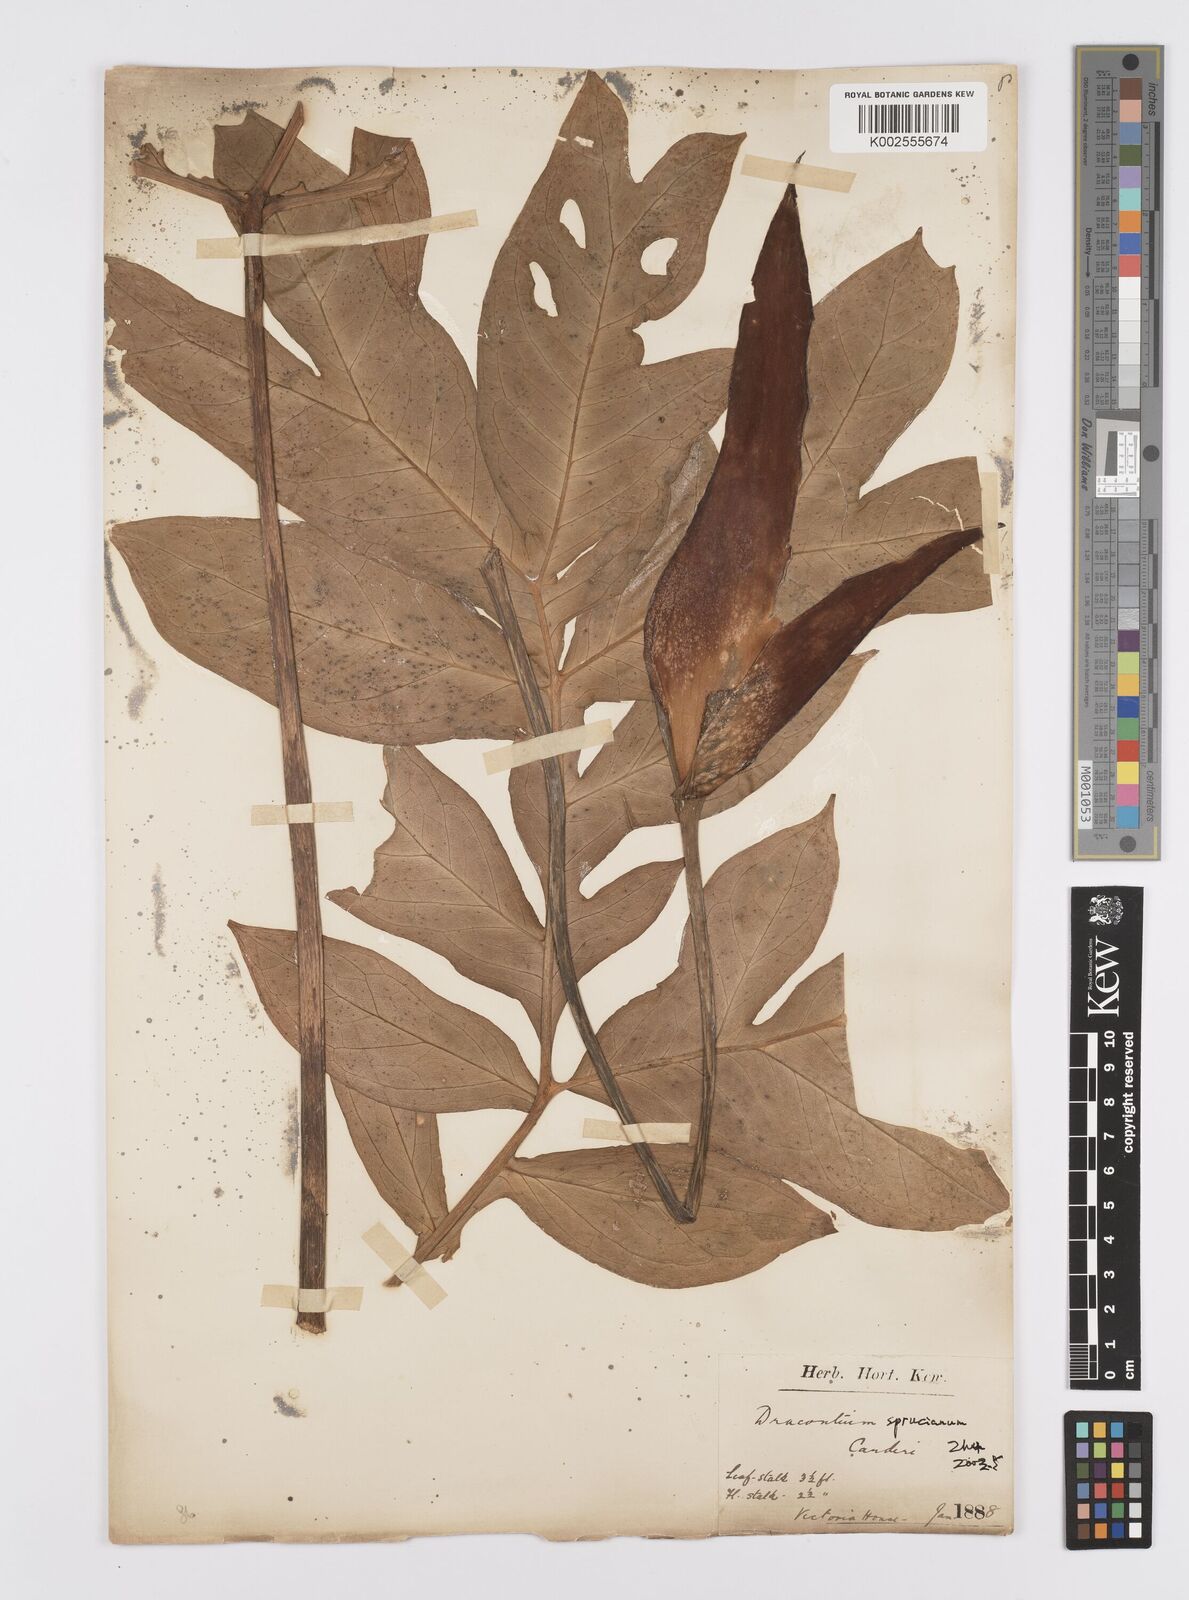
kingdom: Plantae
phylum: Tracheophyta
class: Liliopsida
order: Alismatales
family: Araceae
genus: Dracontium
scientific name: Dracontium spruceanum
